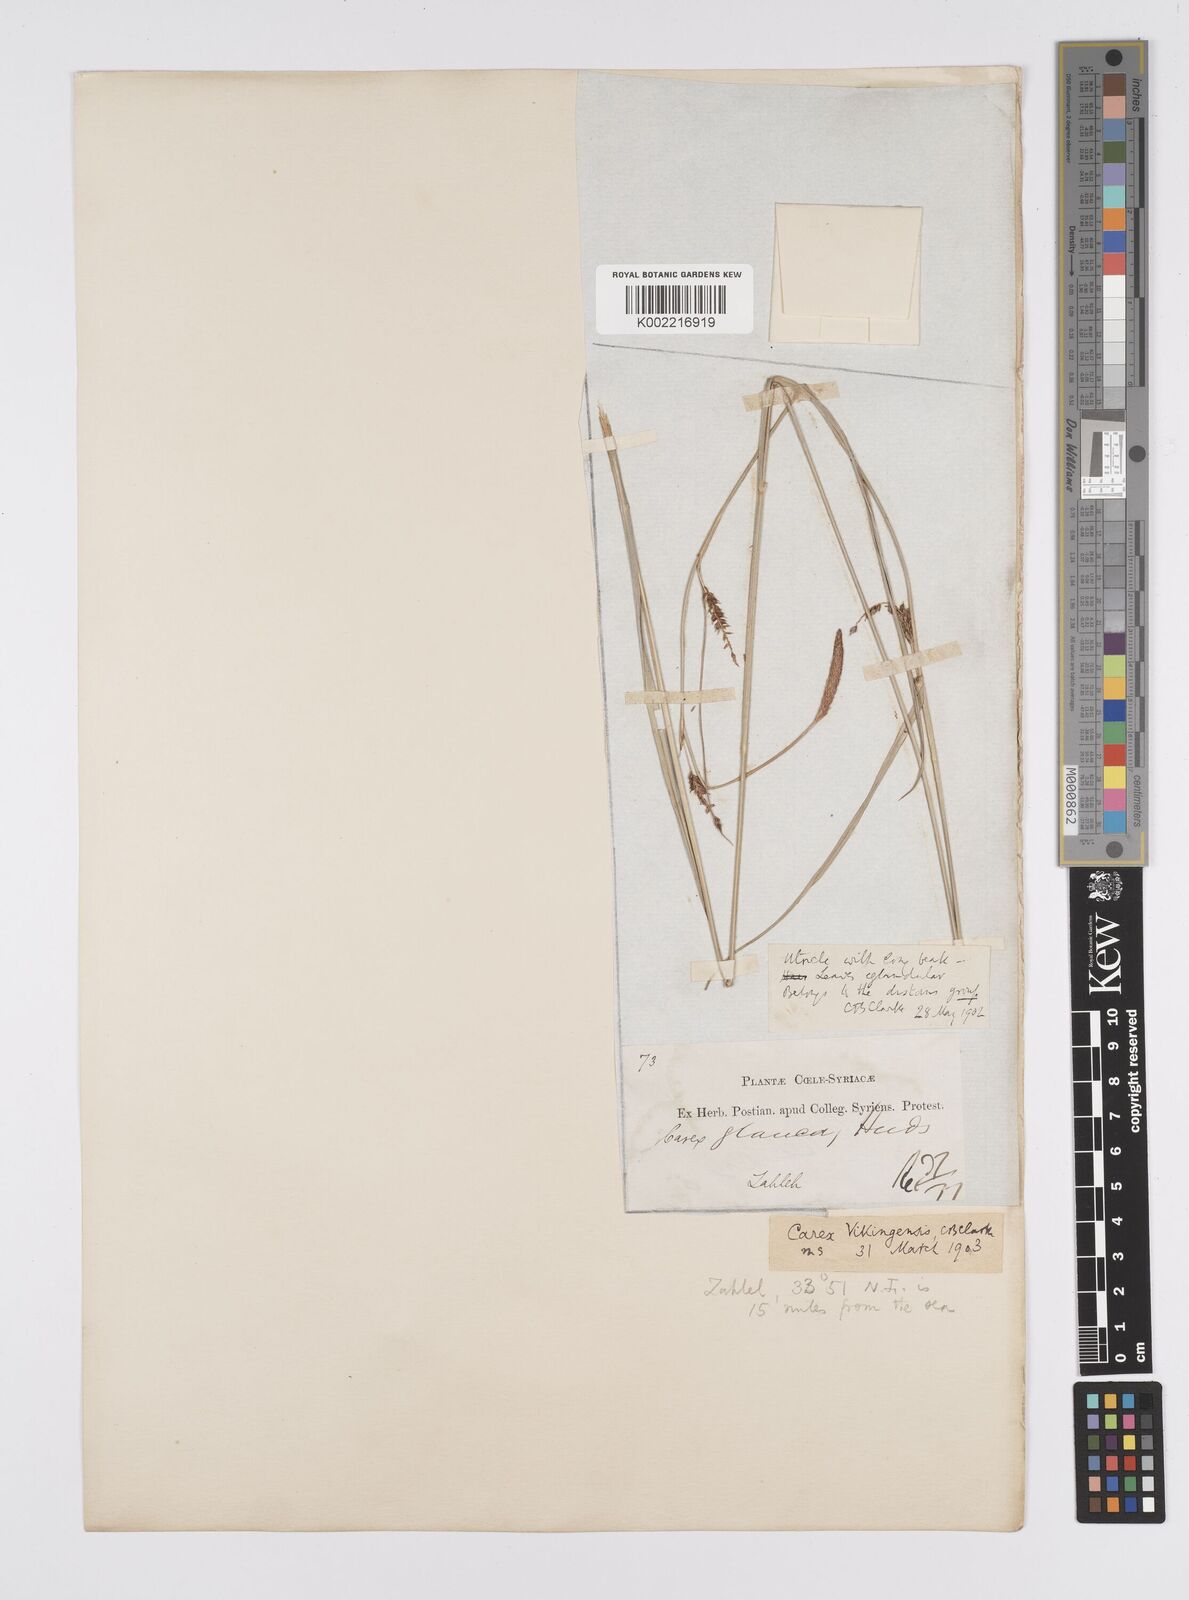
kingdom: Plantae
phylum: Tracheophyta
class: Liliopsida
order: Poales
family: Cyperaceae
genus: Carex
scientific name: Carex distans
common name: Distant sedge
